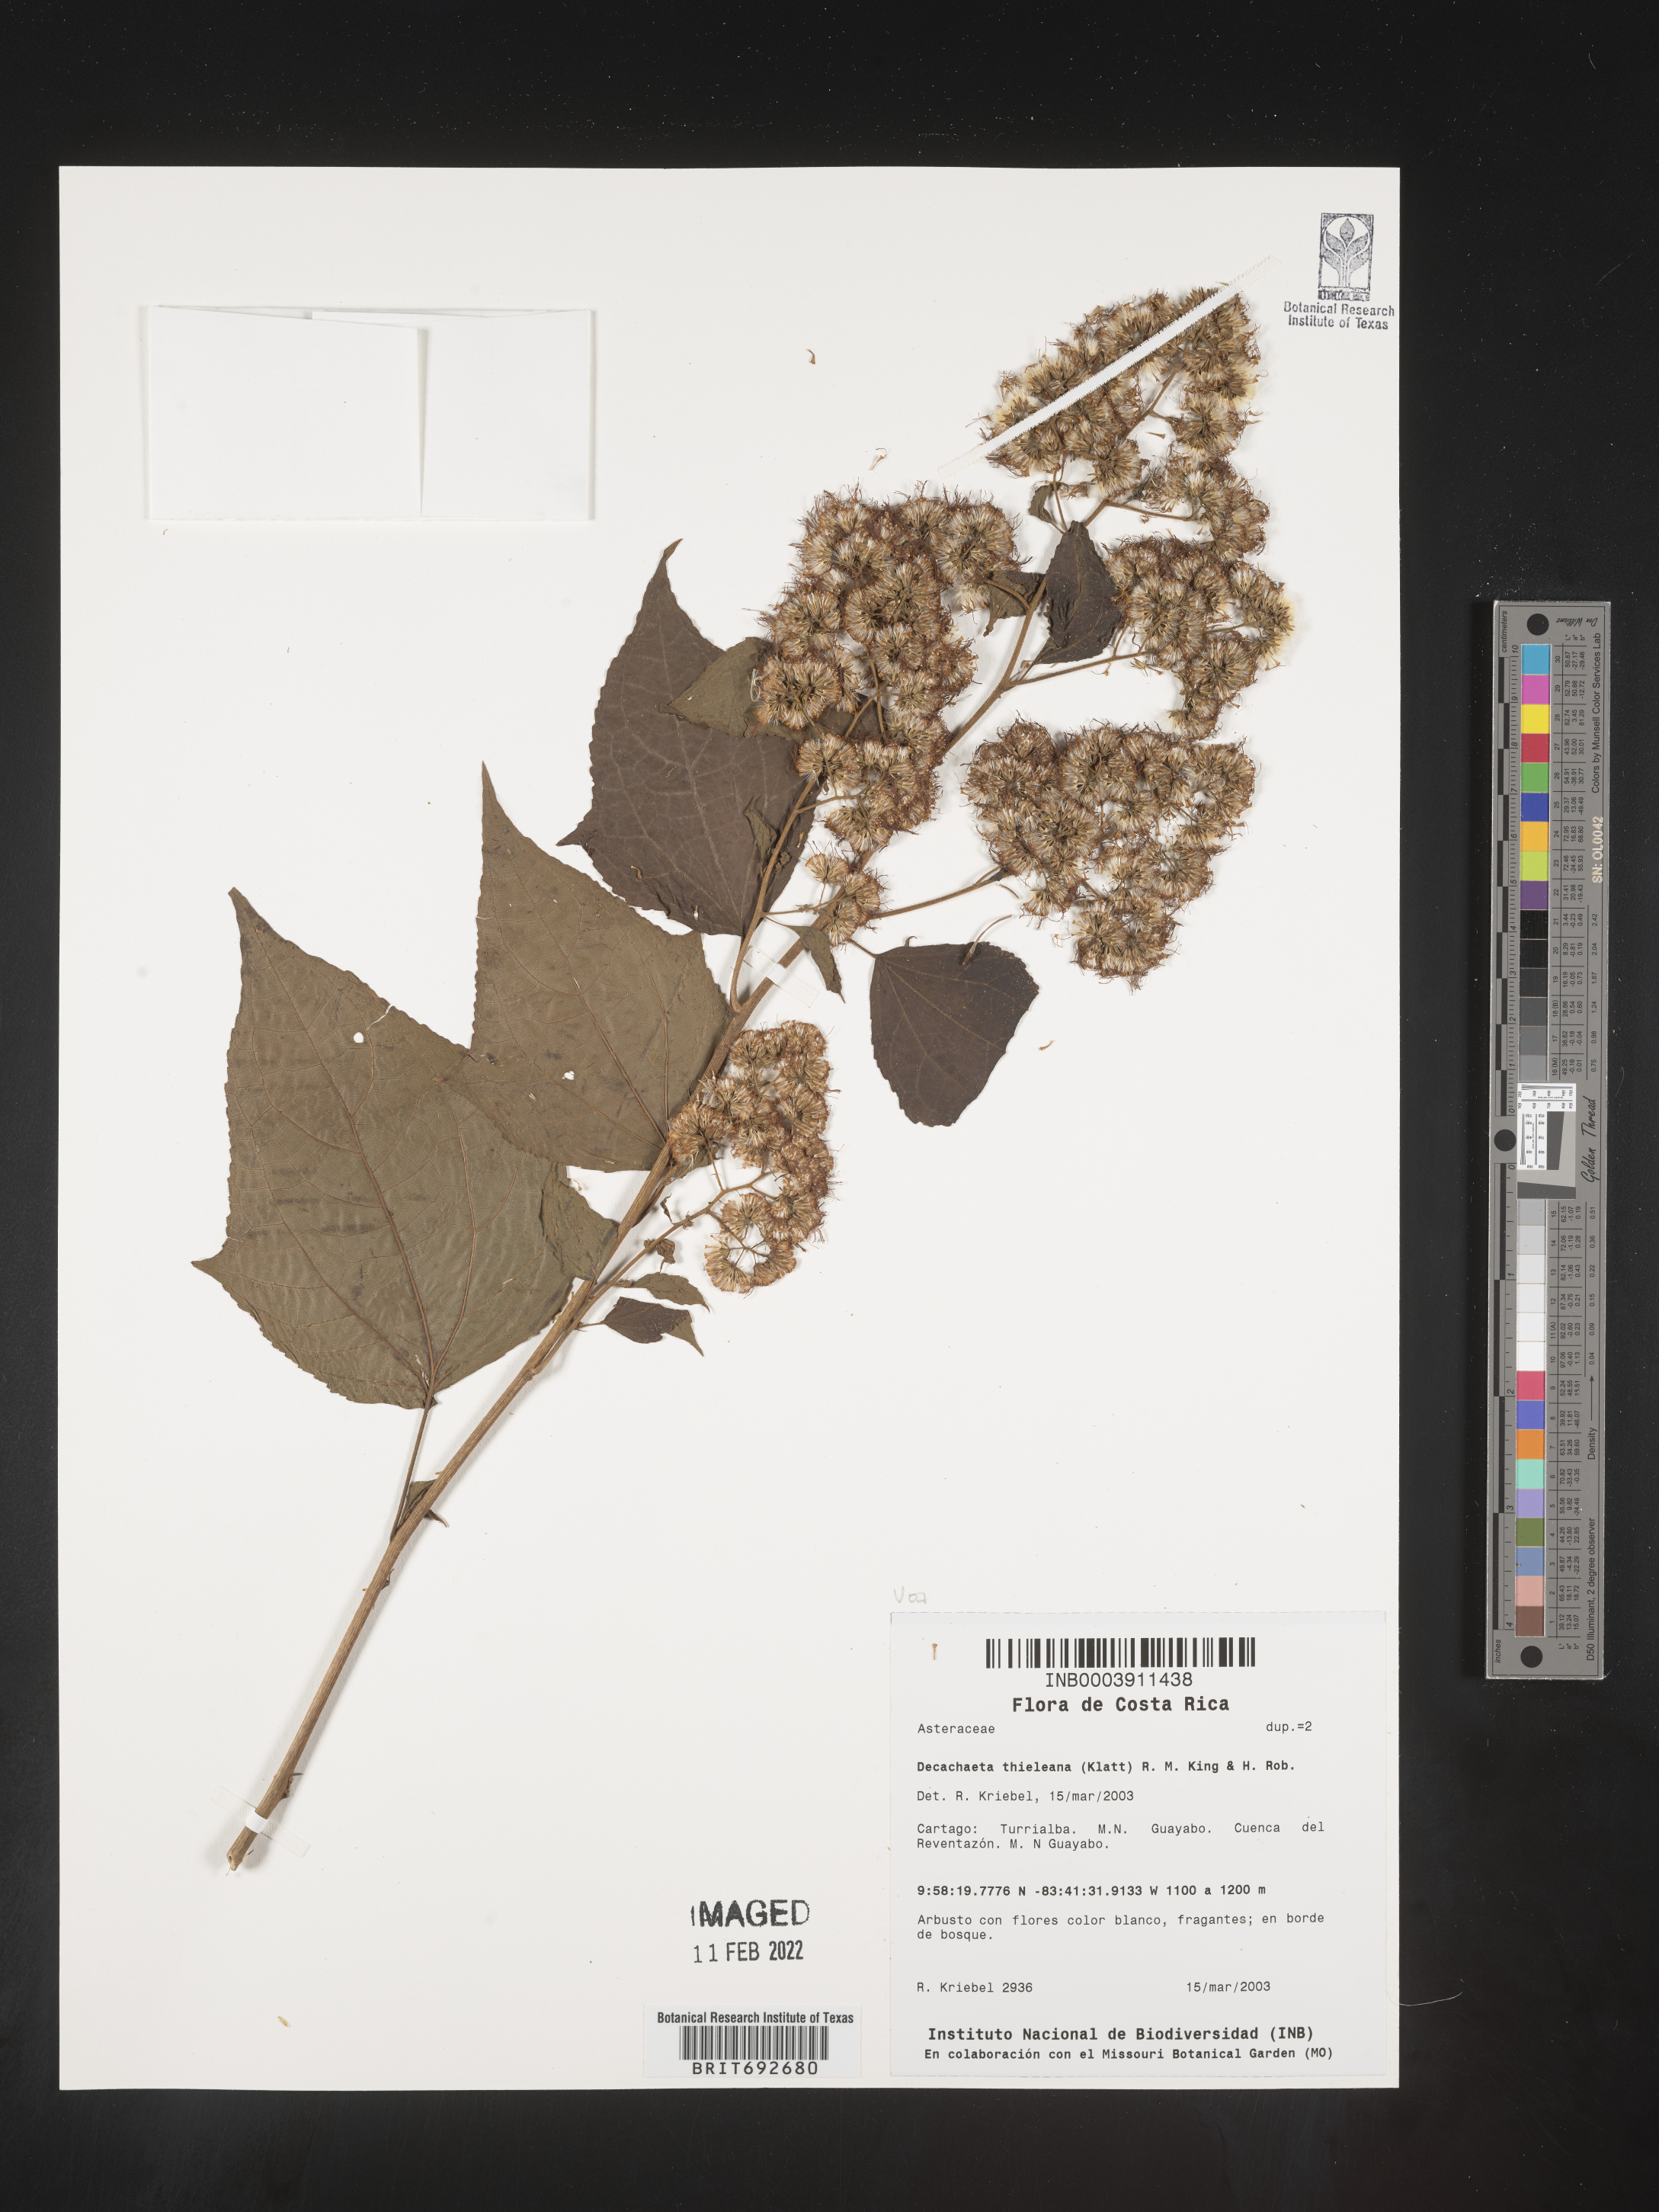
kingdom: Plantae
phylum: Tracheophyta
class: Magnoliopsida
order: Asterales
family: Asteraceae
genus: Decachaeta
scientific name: Decachaeta
